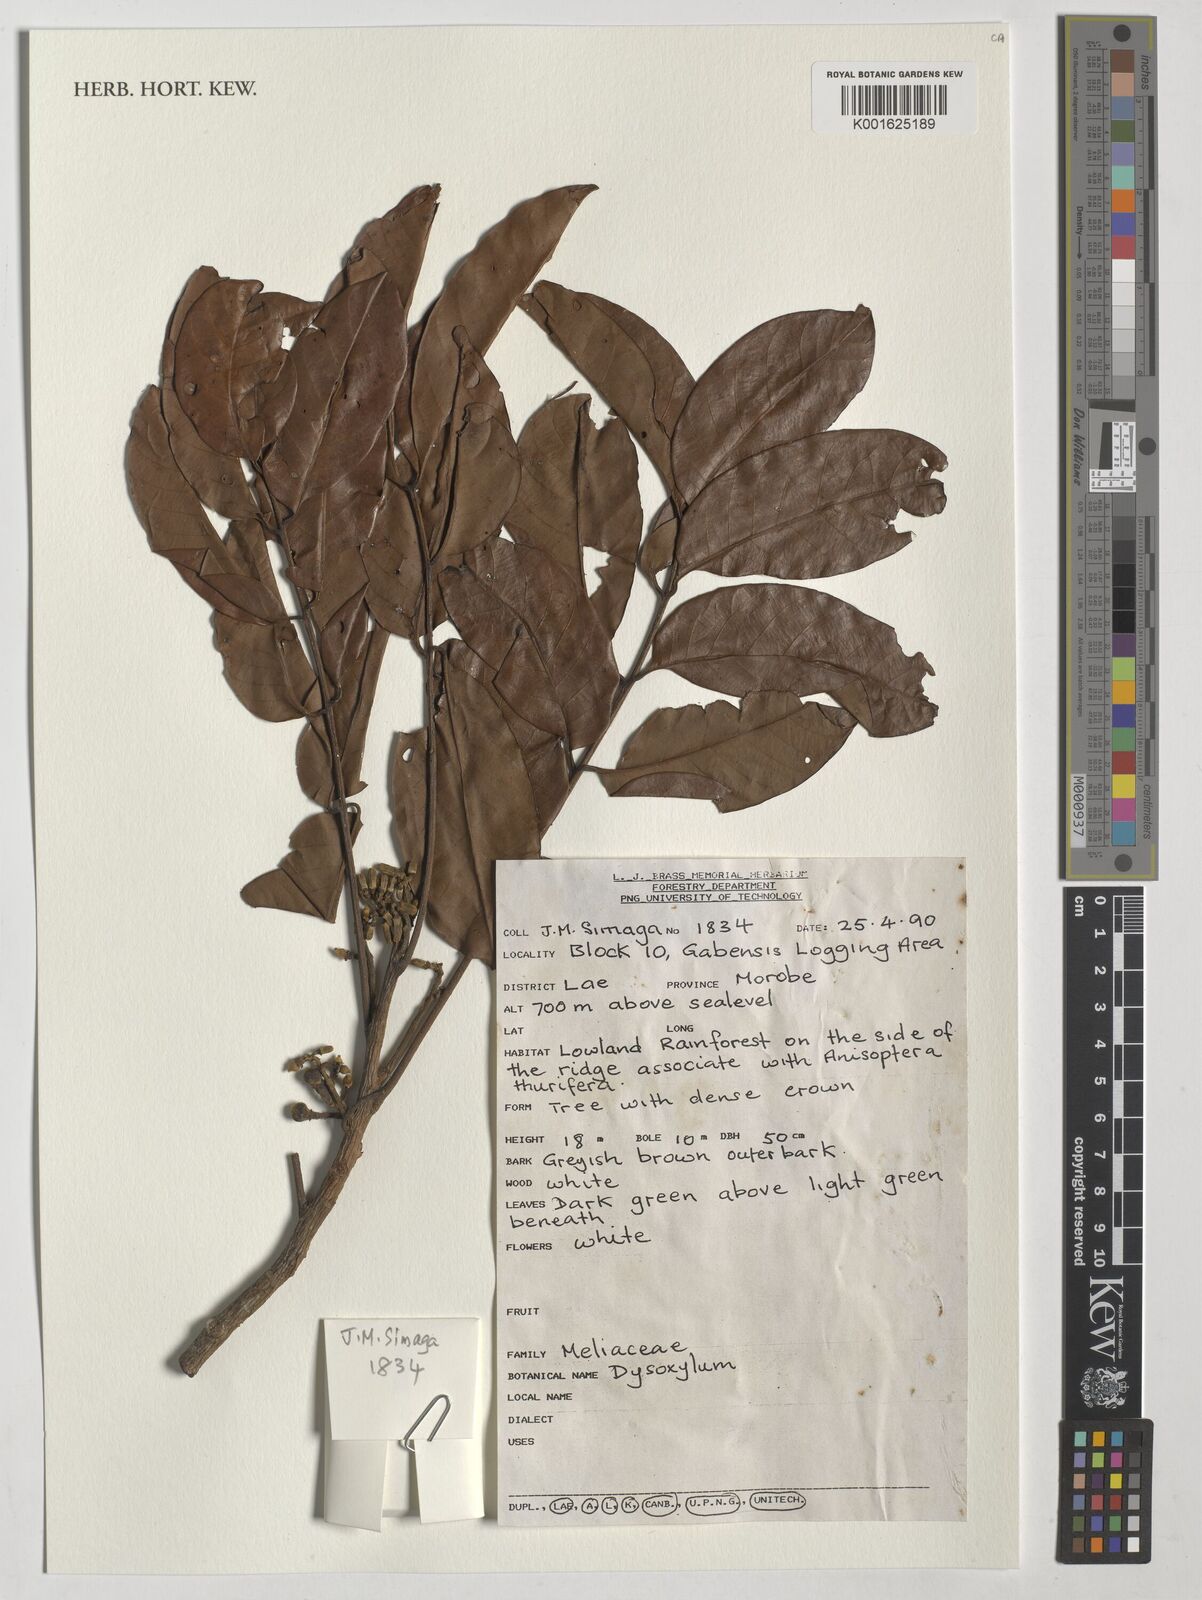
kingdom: Plantae
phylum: Tracheophyta
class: Magnoliopsida
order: Sapindales
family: Meliaceae
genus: Dysoxylum
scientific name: Dysoxylum
